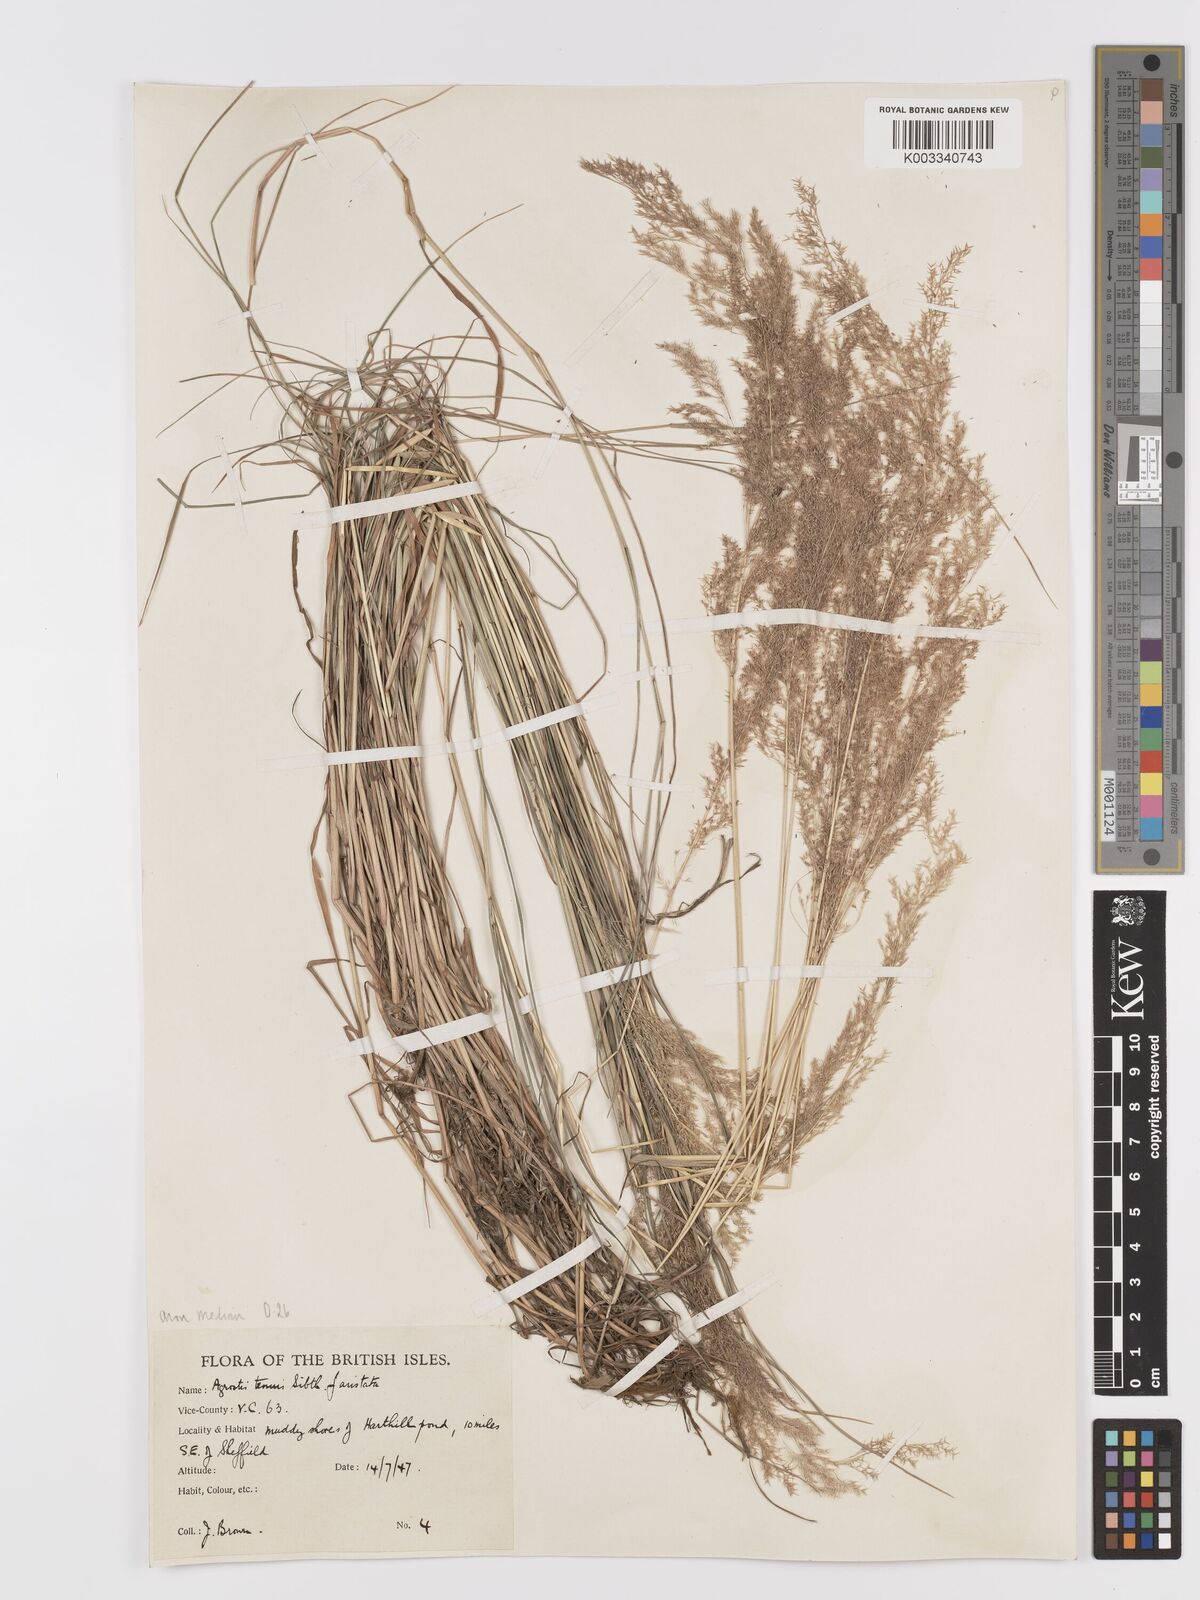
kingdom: Plantae
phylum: Tracheophyta
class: Liliopsida
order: Poales
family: Poaceae
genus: Agrostis
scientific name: Agrostis capillaris
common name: Colonial bentgrass
